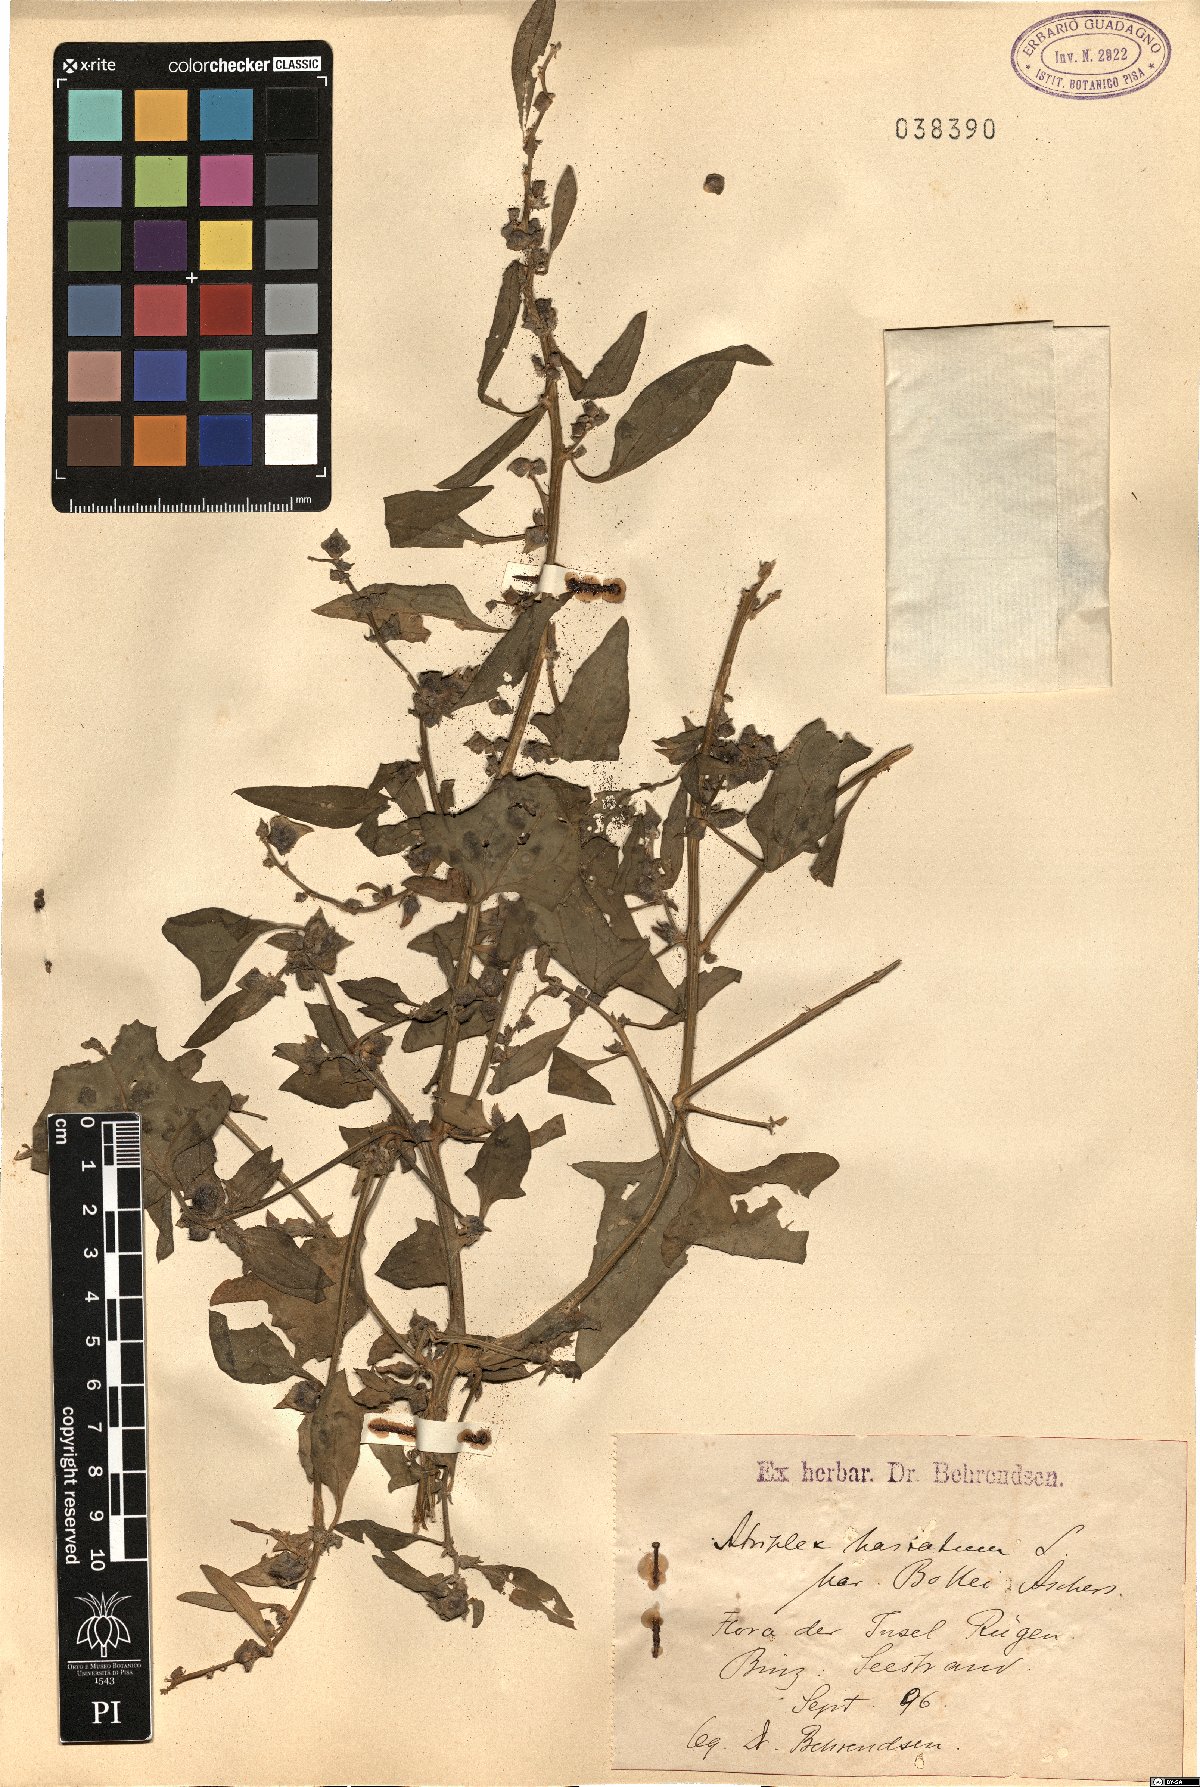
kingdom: Plantae
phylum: Tracheophyta
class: Magnoliopsida
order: Caryophyllales
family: Amaranthaceae
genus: Atriplex
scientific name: Atriplex prostrata
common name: Spear-leaved orache
